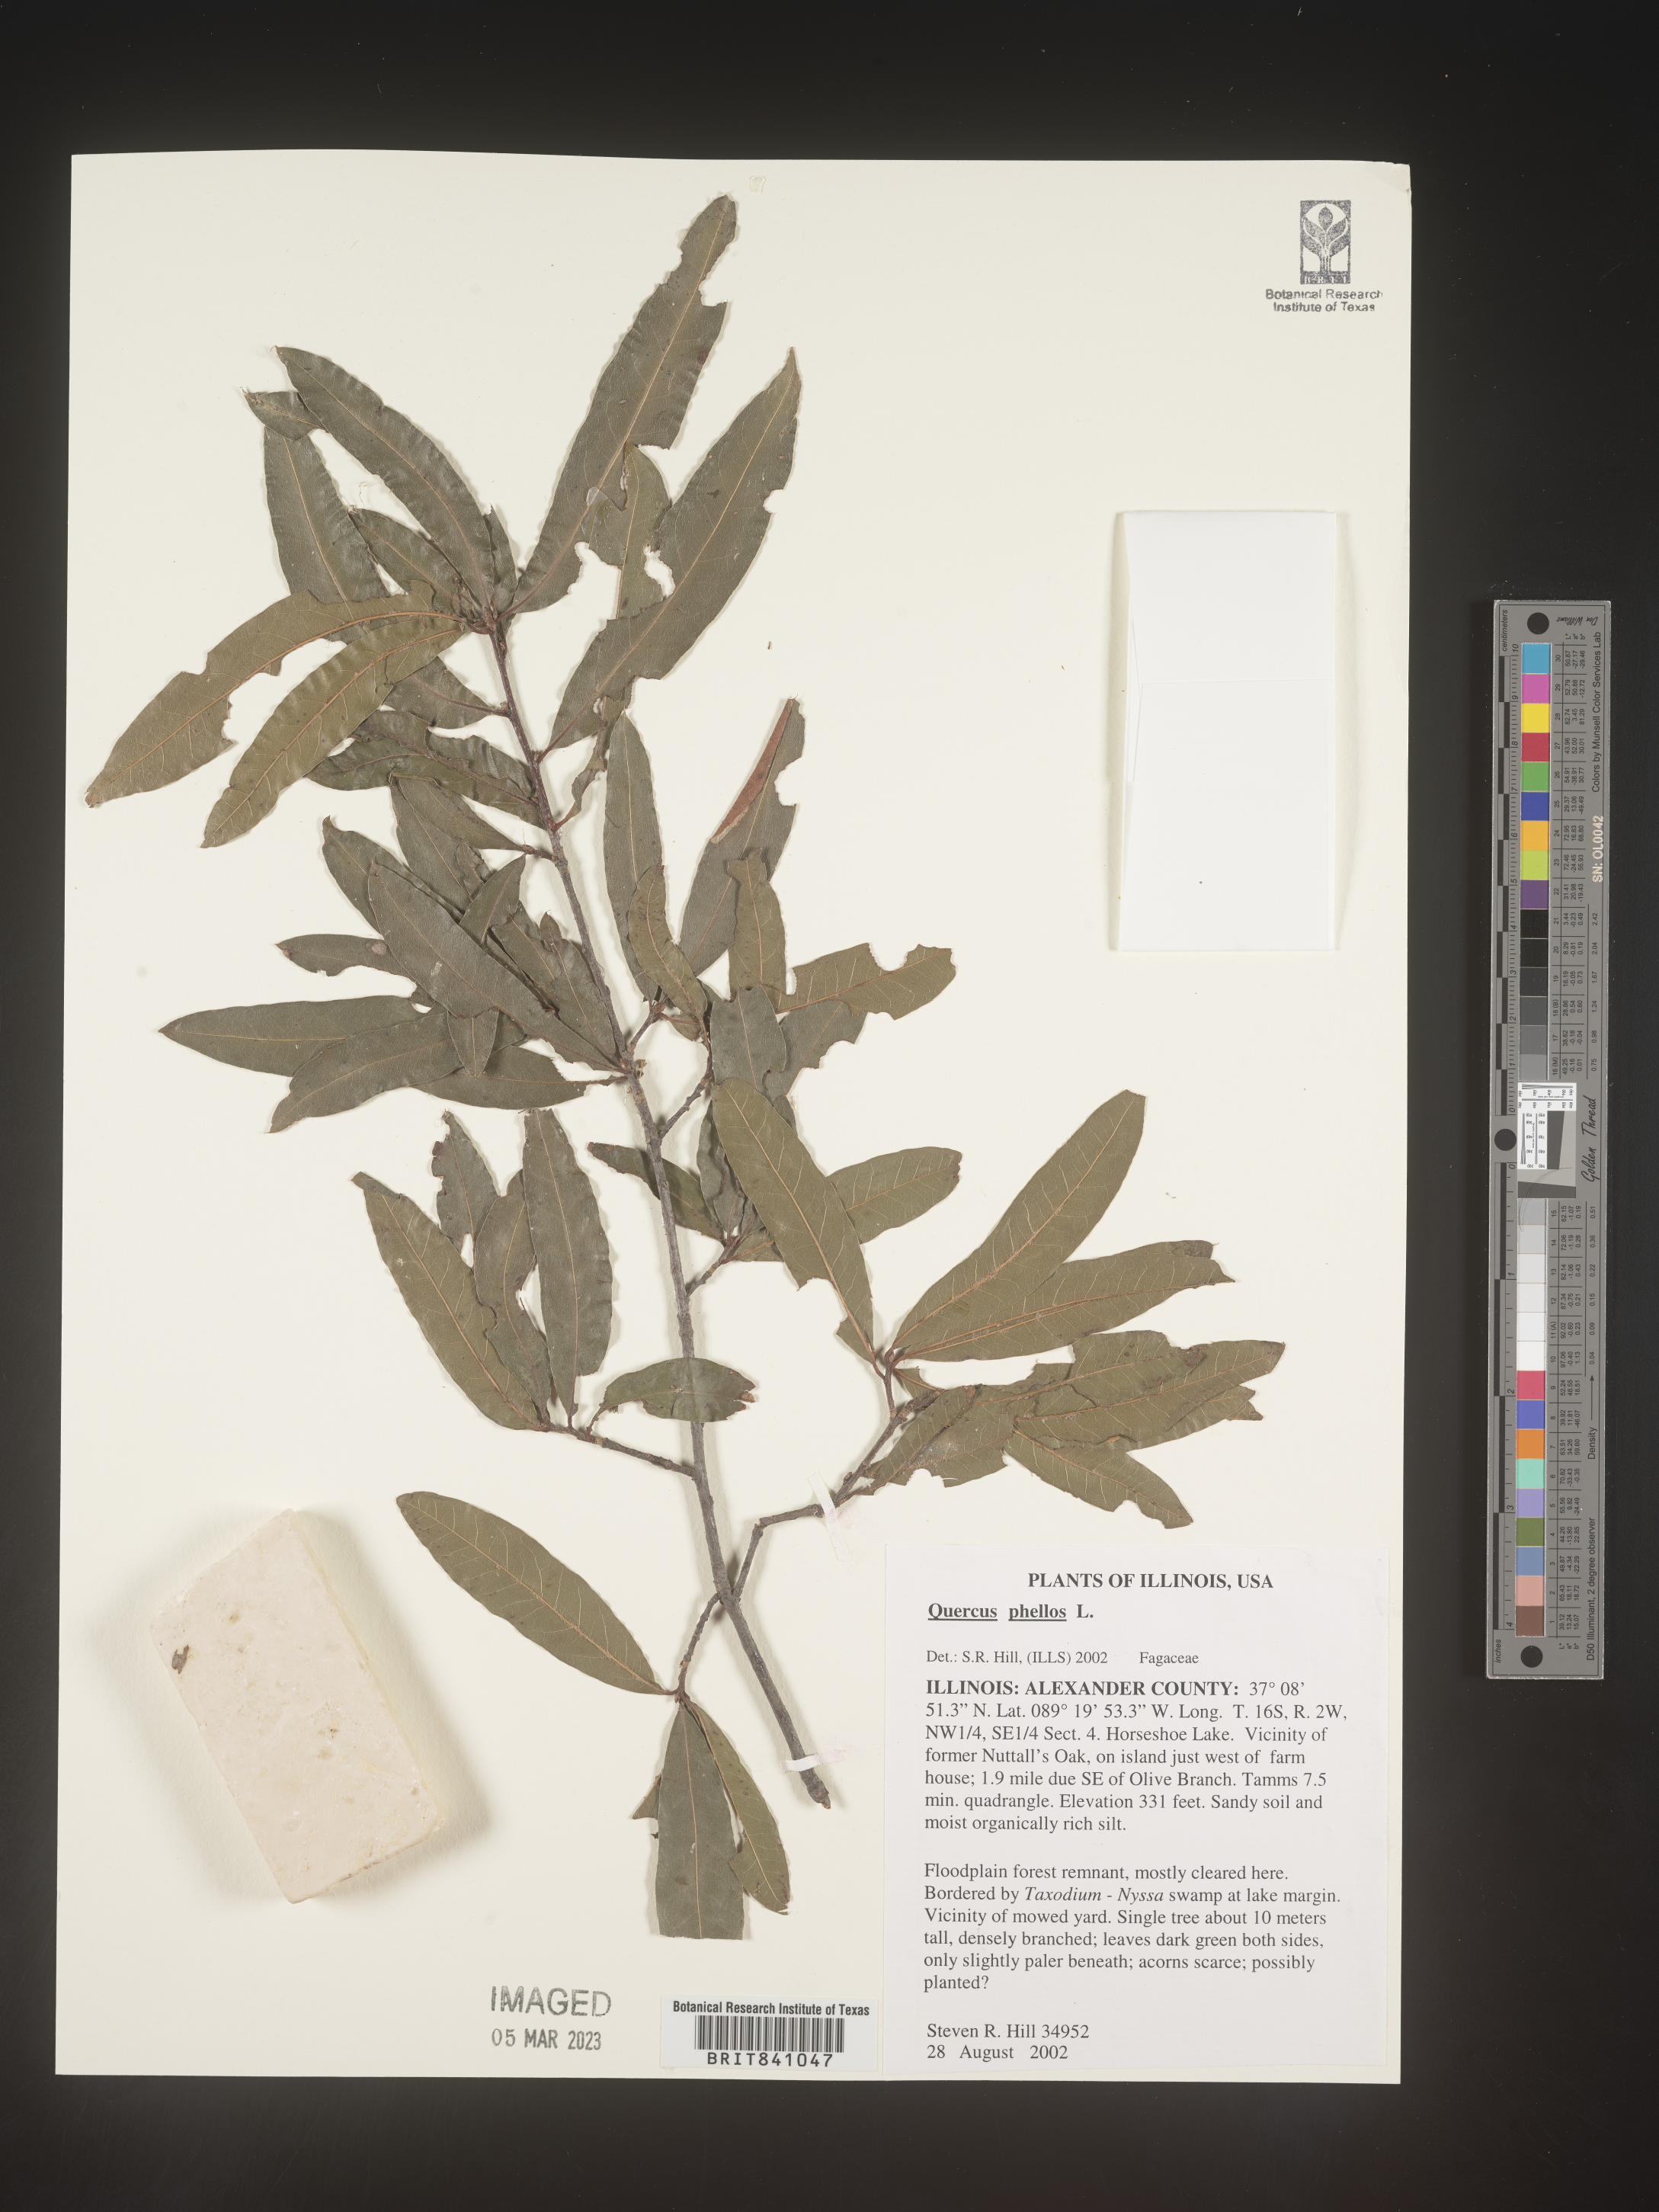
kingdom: Plantae
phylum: Tracheophyta
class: Magnoliopsida
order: Fagales
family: Fagaceae
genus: Quercus
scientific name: Quercus phellos
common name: Willow oak
